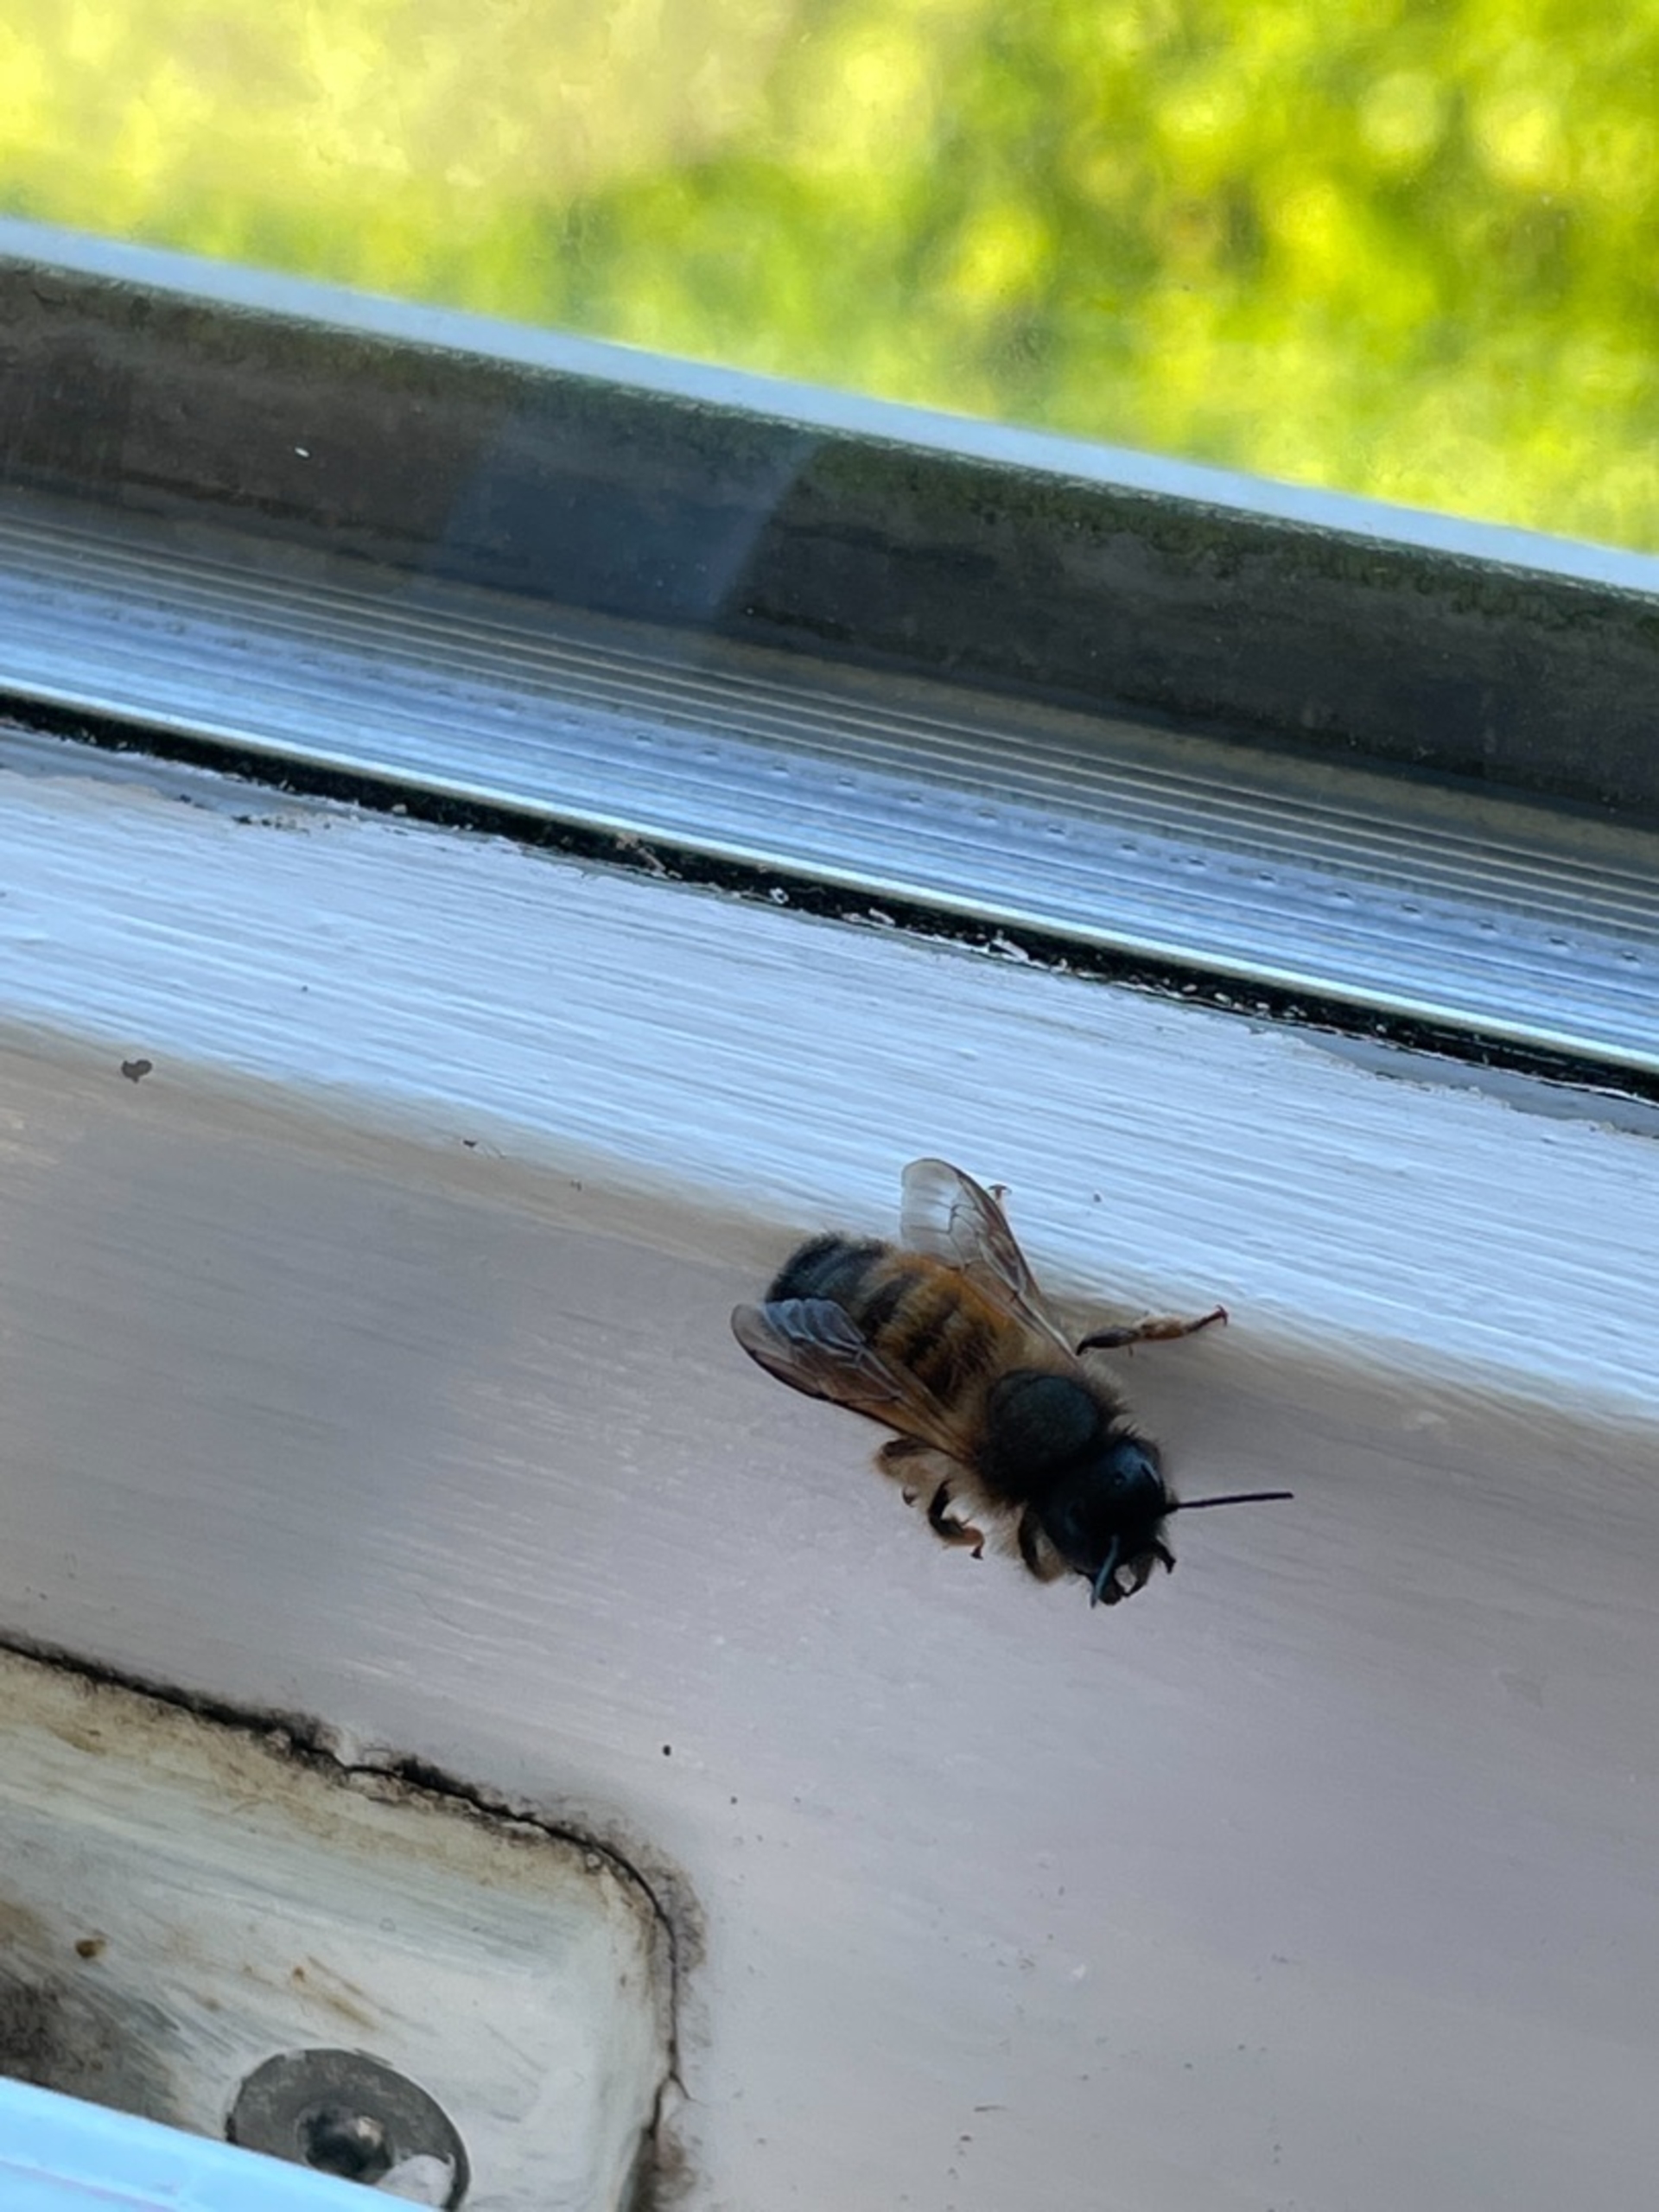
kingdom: Animalia
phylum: Arthropoda
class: Insecta
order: Hymenoptera
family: Megachilidae
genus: Osmia
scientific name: Osmia bicornis
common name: Rød murerbi
